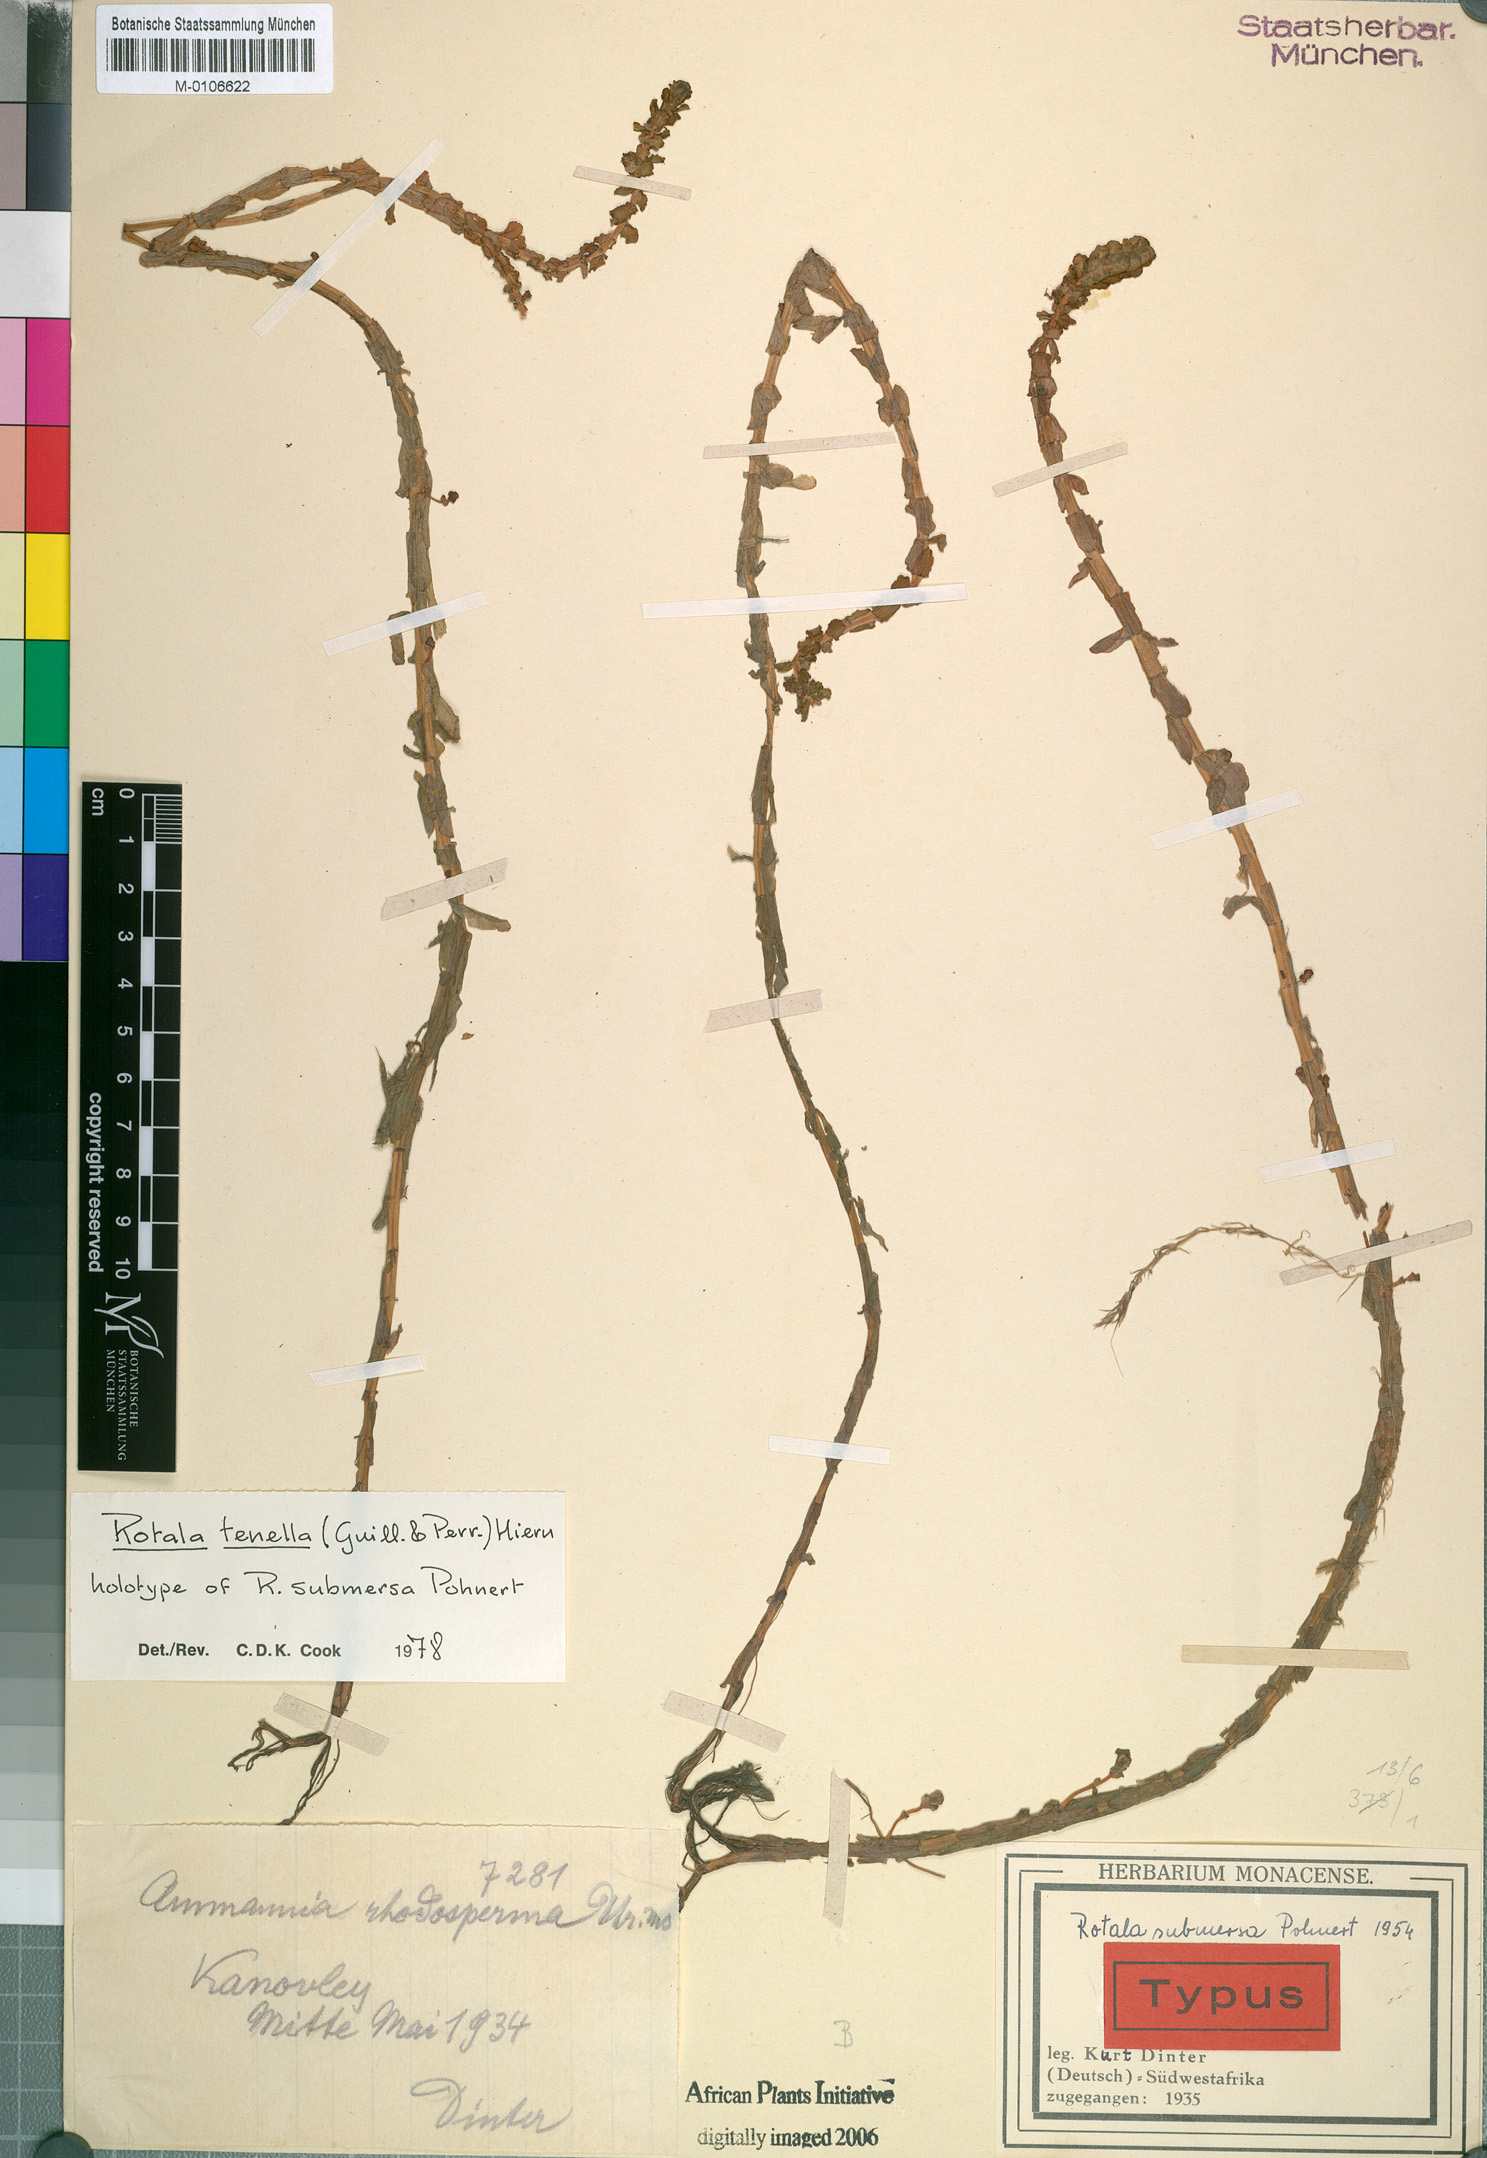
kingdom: Plantae
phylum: Tracheophyta
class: Magnoliopsida
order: Myrtales
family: Lythraceae
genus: Rotala
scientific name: Rotala tenella
